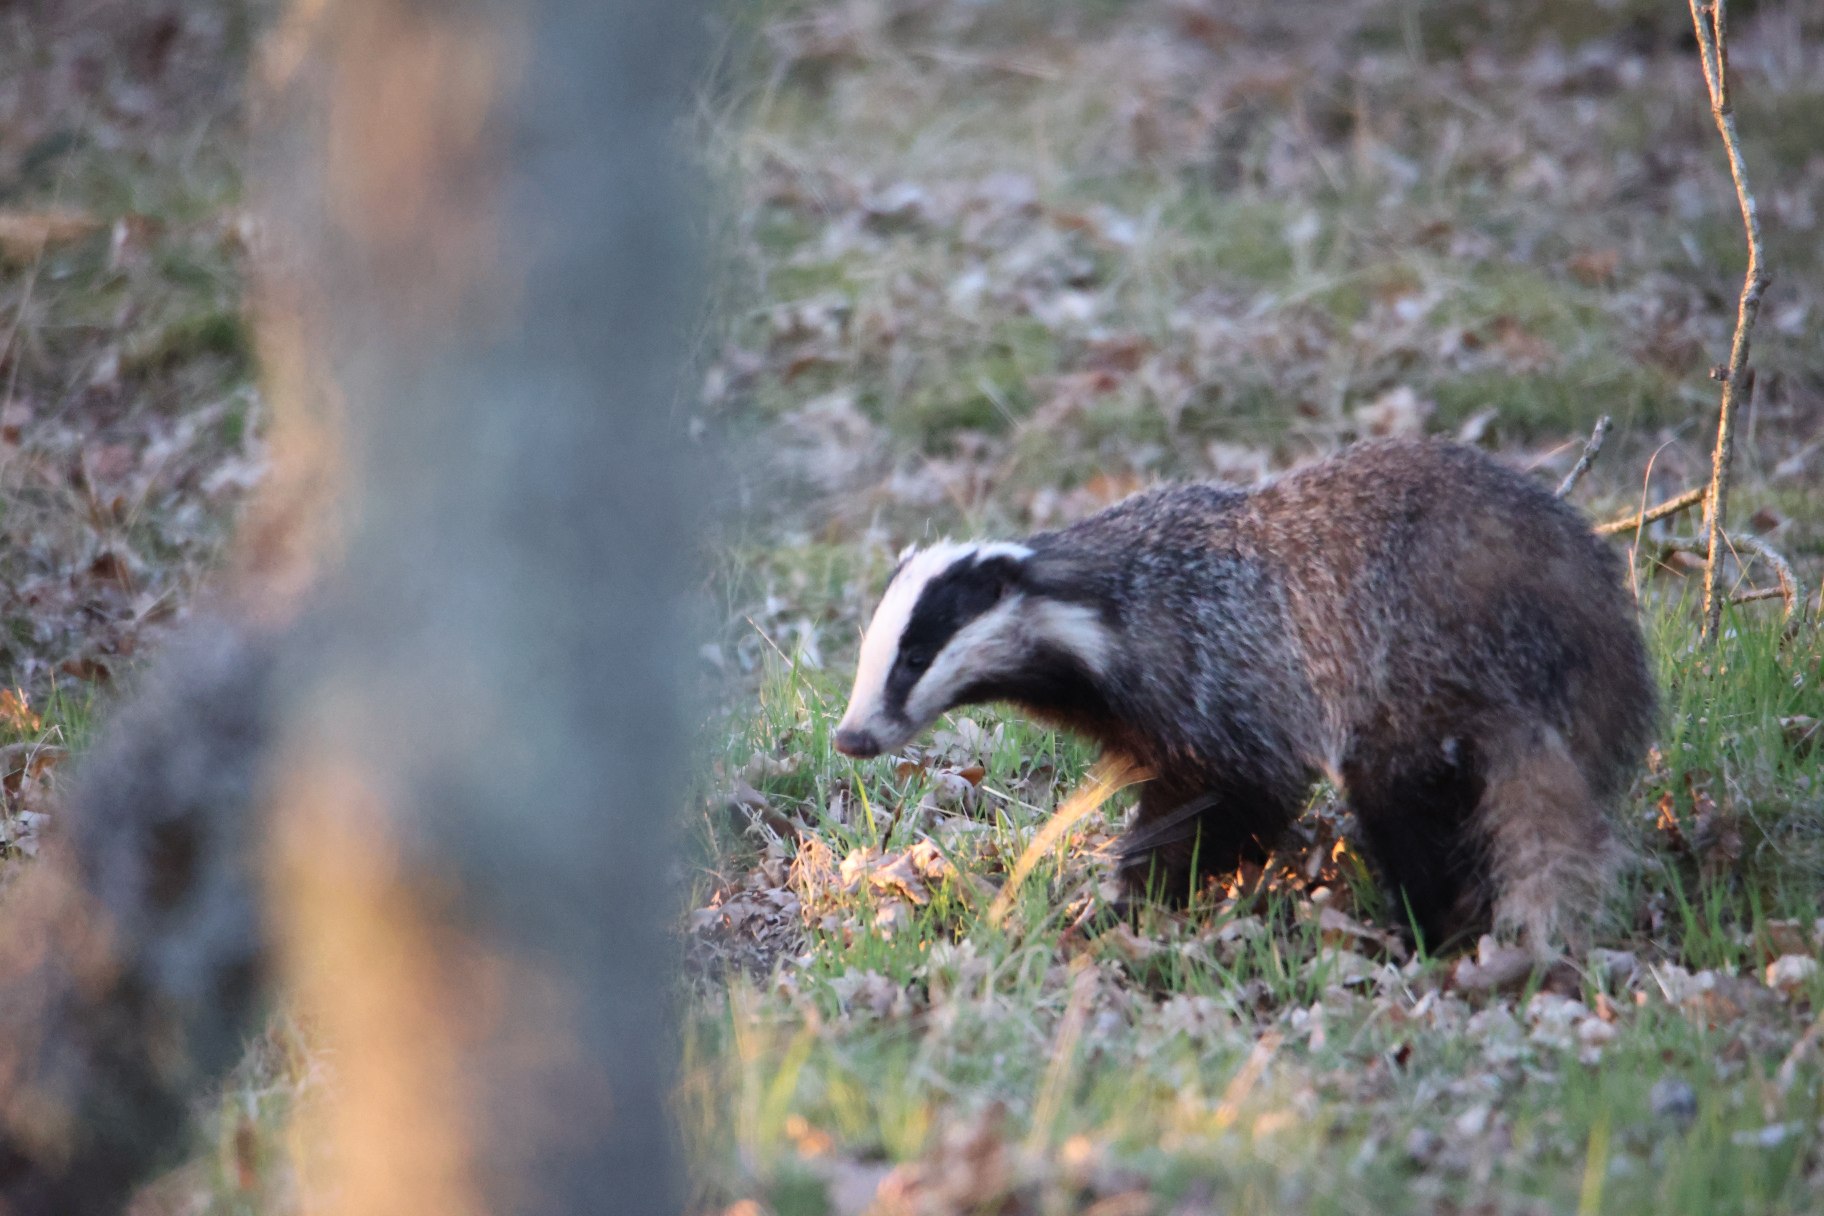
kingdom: Animalia
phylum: Chordata
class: Mammalia
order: Carnivora
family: Mustelidae
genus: Meles
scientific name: Meles meles
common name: Grævling
